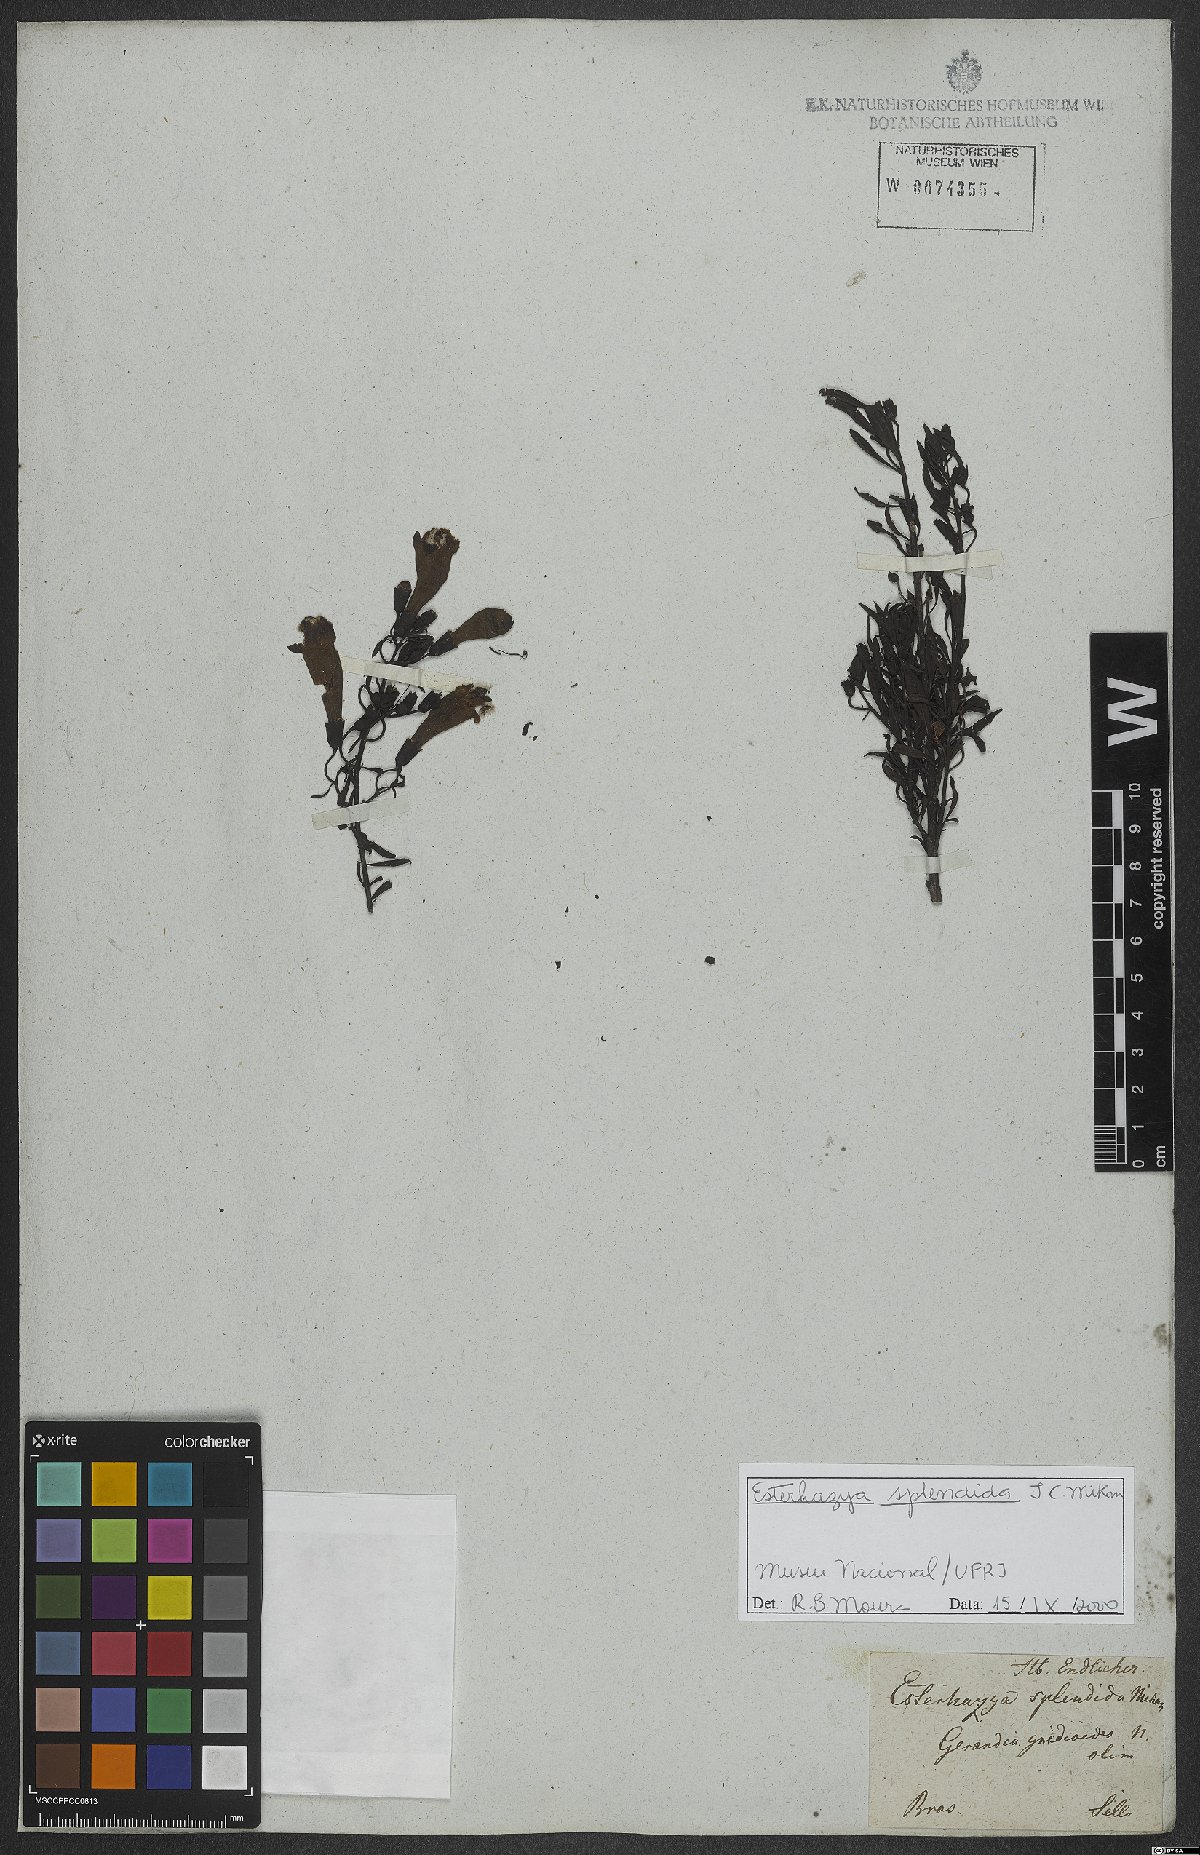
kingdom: Plantae
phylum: Tracheophyta
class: Magnoliopsida
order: Lamiales
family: Orobanchaceae
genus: Esterhazya
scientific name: Esterhazya splendida
